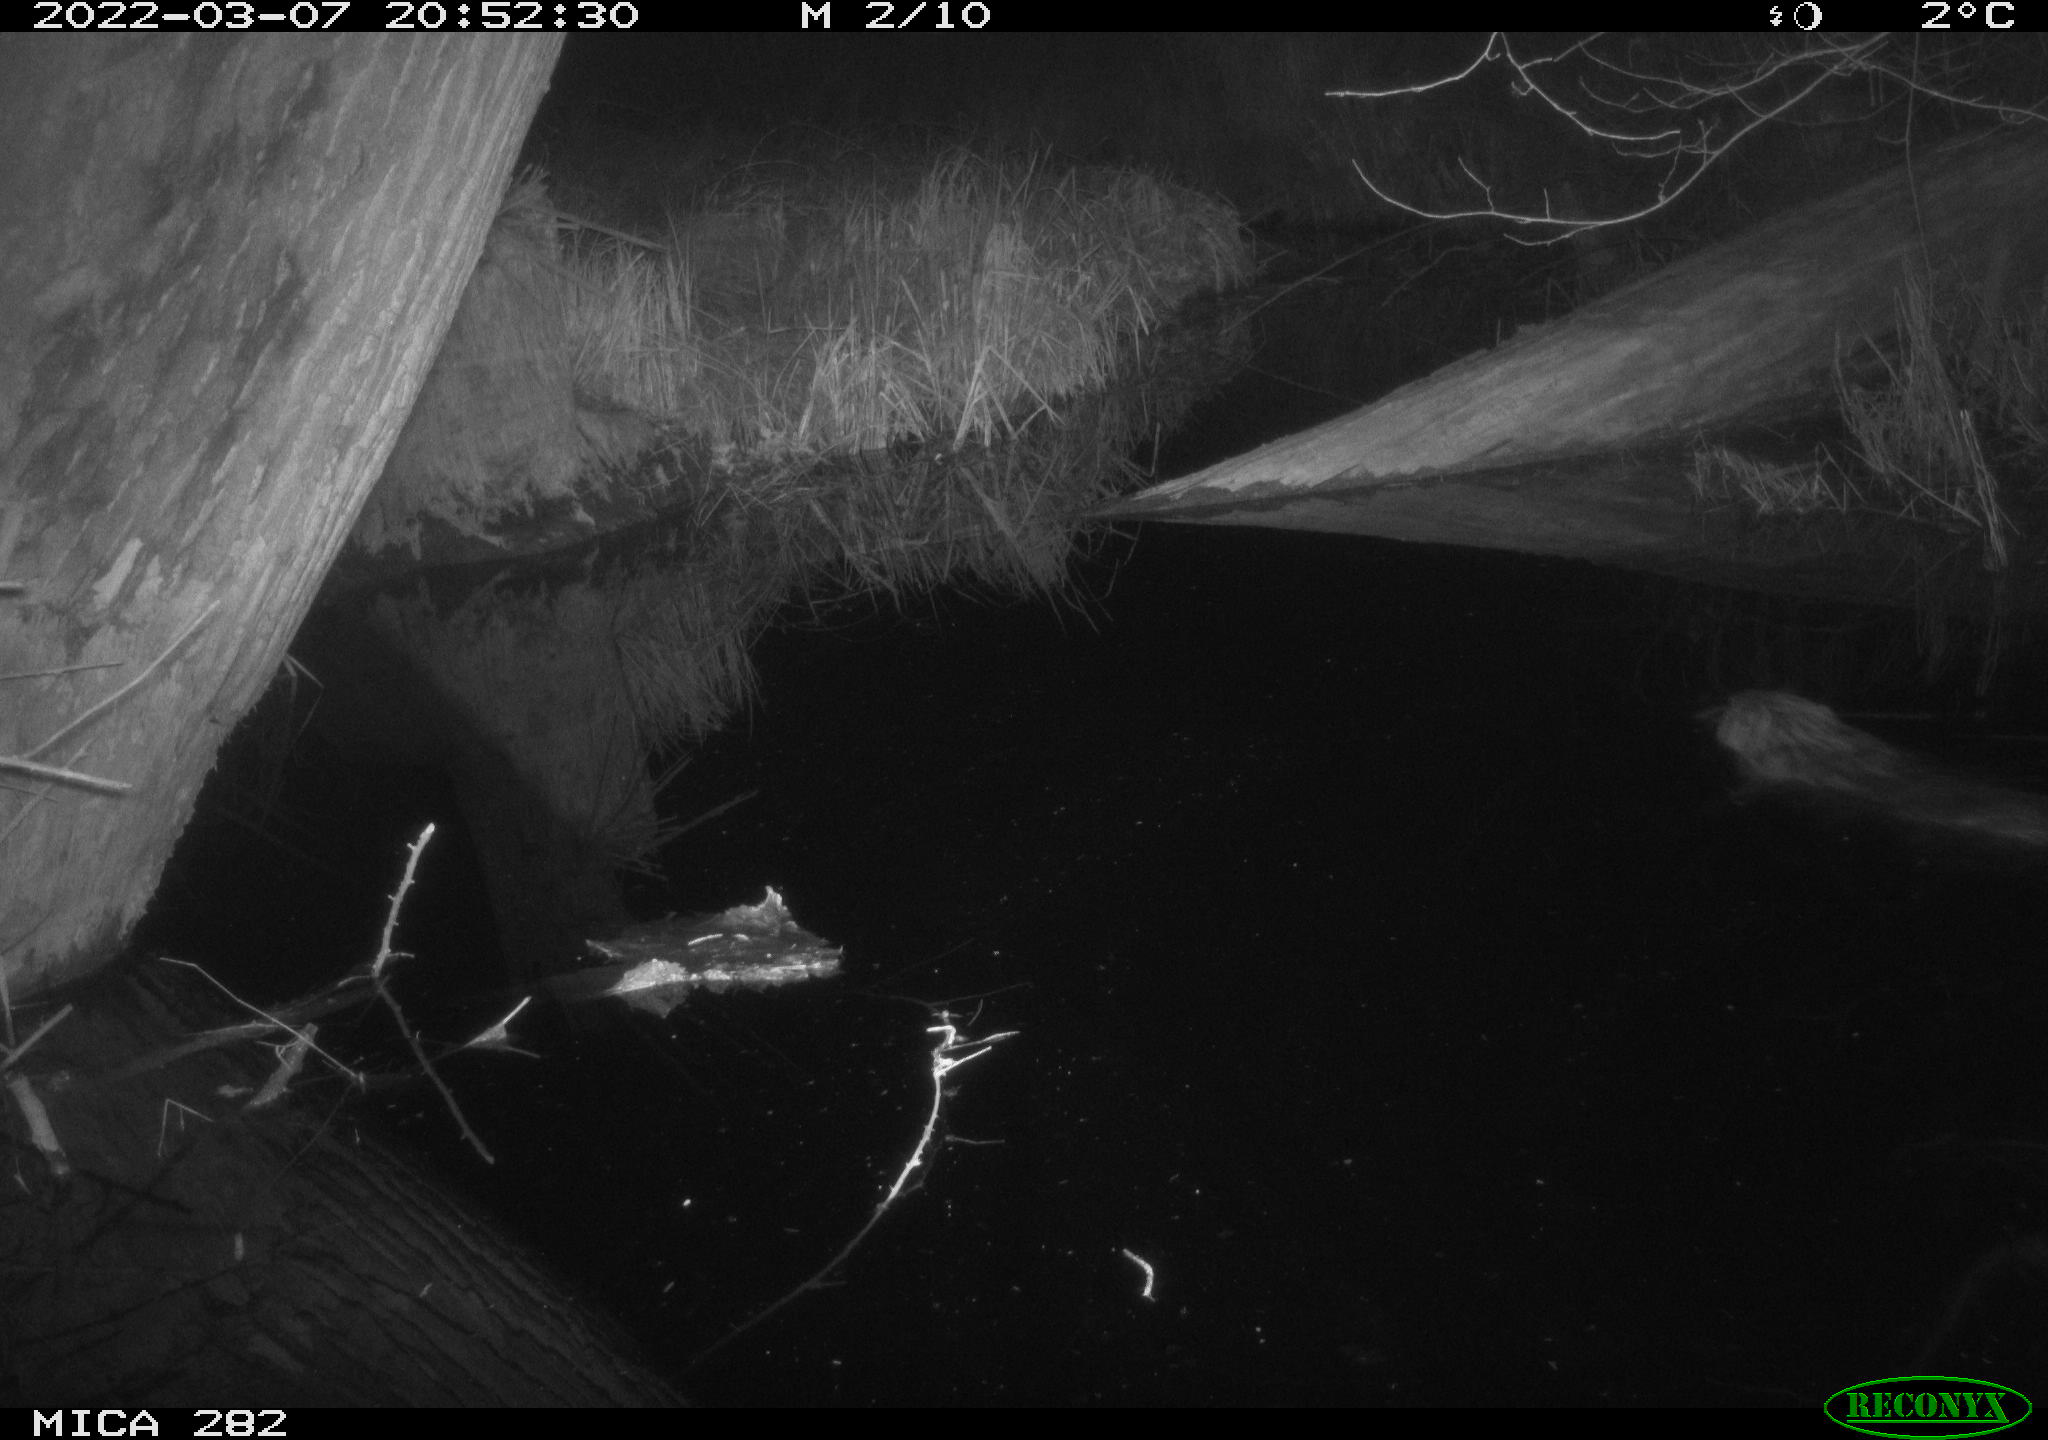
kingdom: Animalia
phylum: Chordata
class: Mammalia
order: Rodentia
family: Castoridae
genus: Castor
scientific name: Castor fiber
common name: Eurasian beaver
